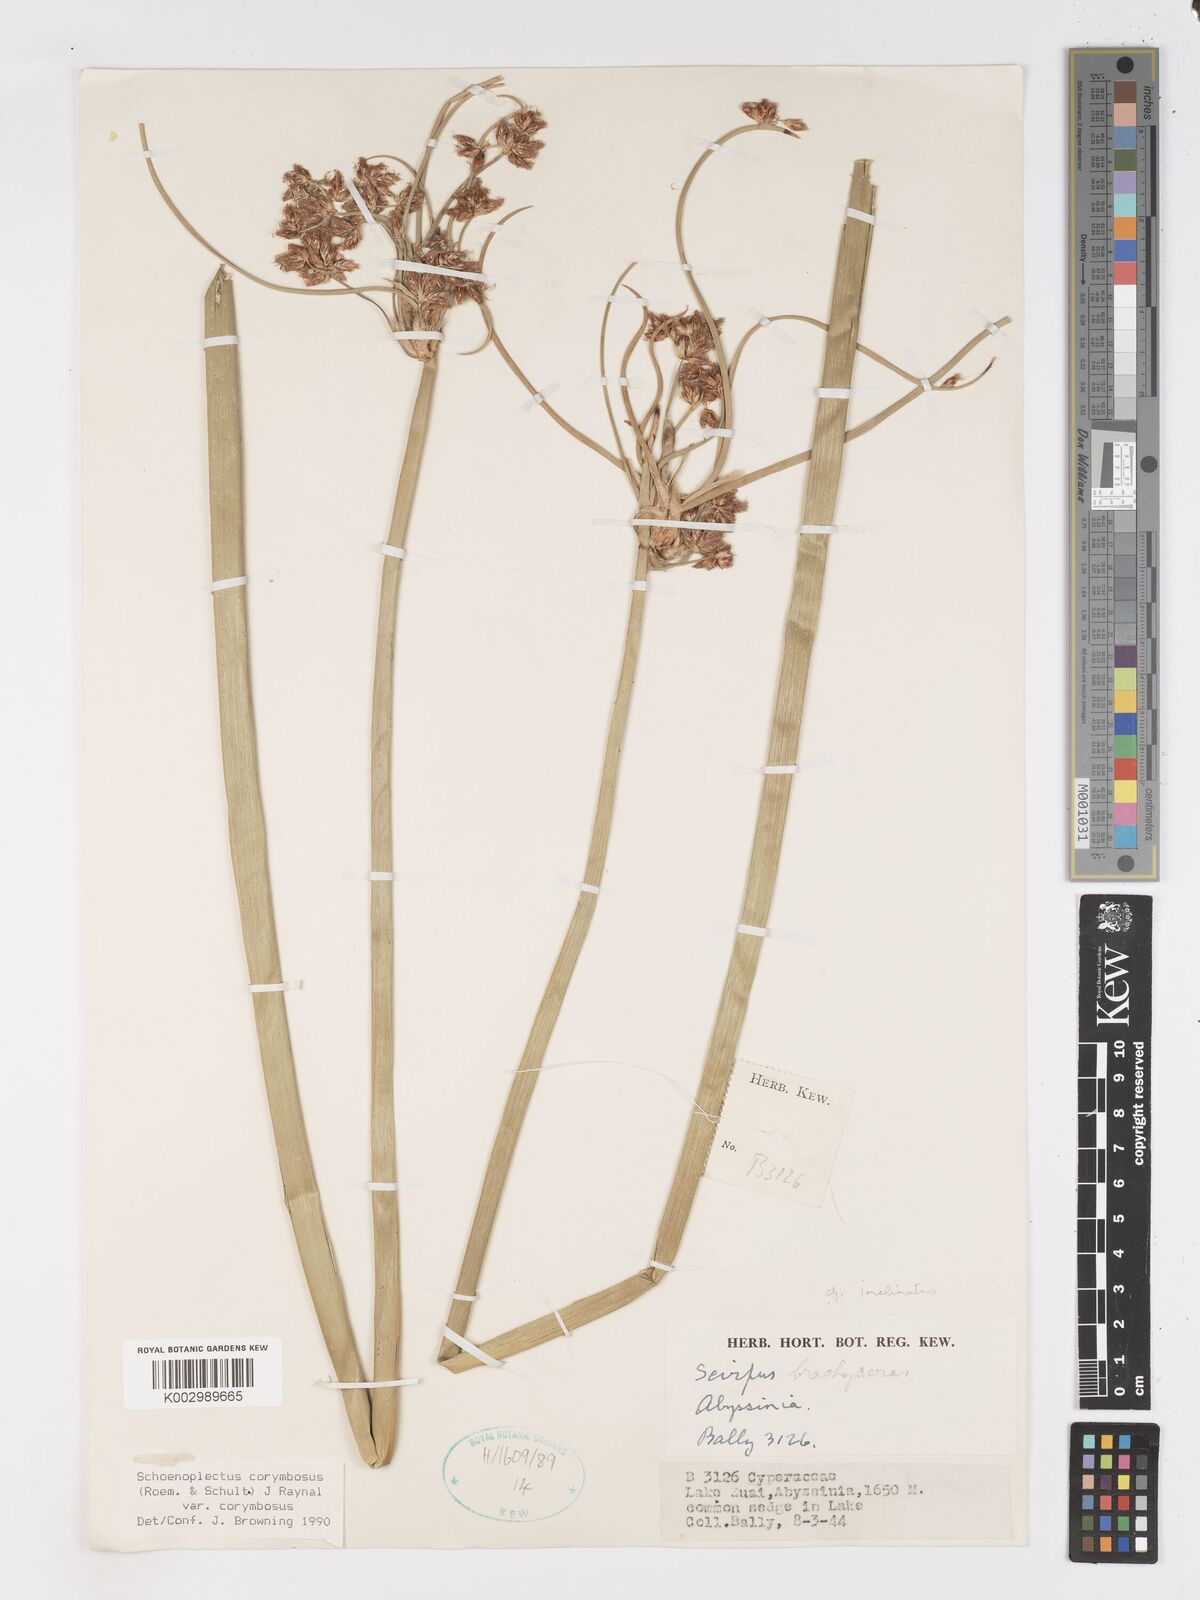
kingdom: Plantae
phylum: Tracheophyta
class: Liliopsida
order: Poales
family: Cyperaceae
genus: Schoenoplectiella
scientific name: Schoenoplectiella corymbosa
